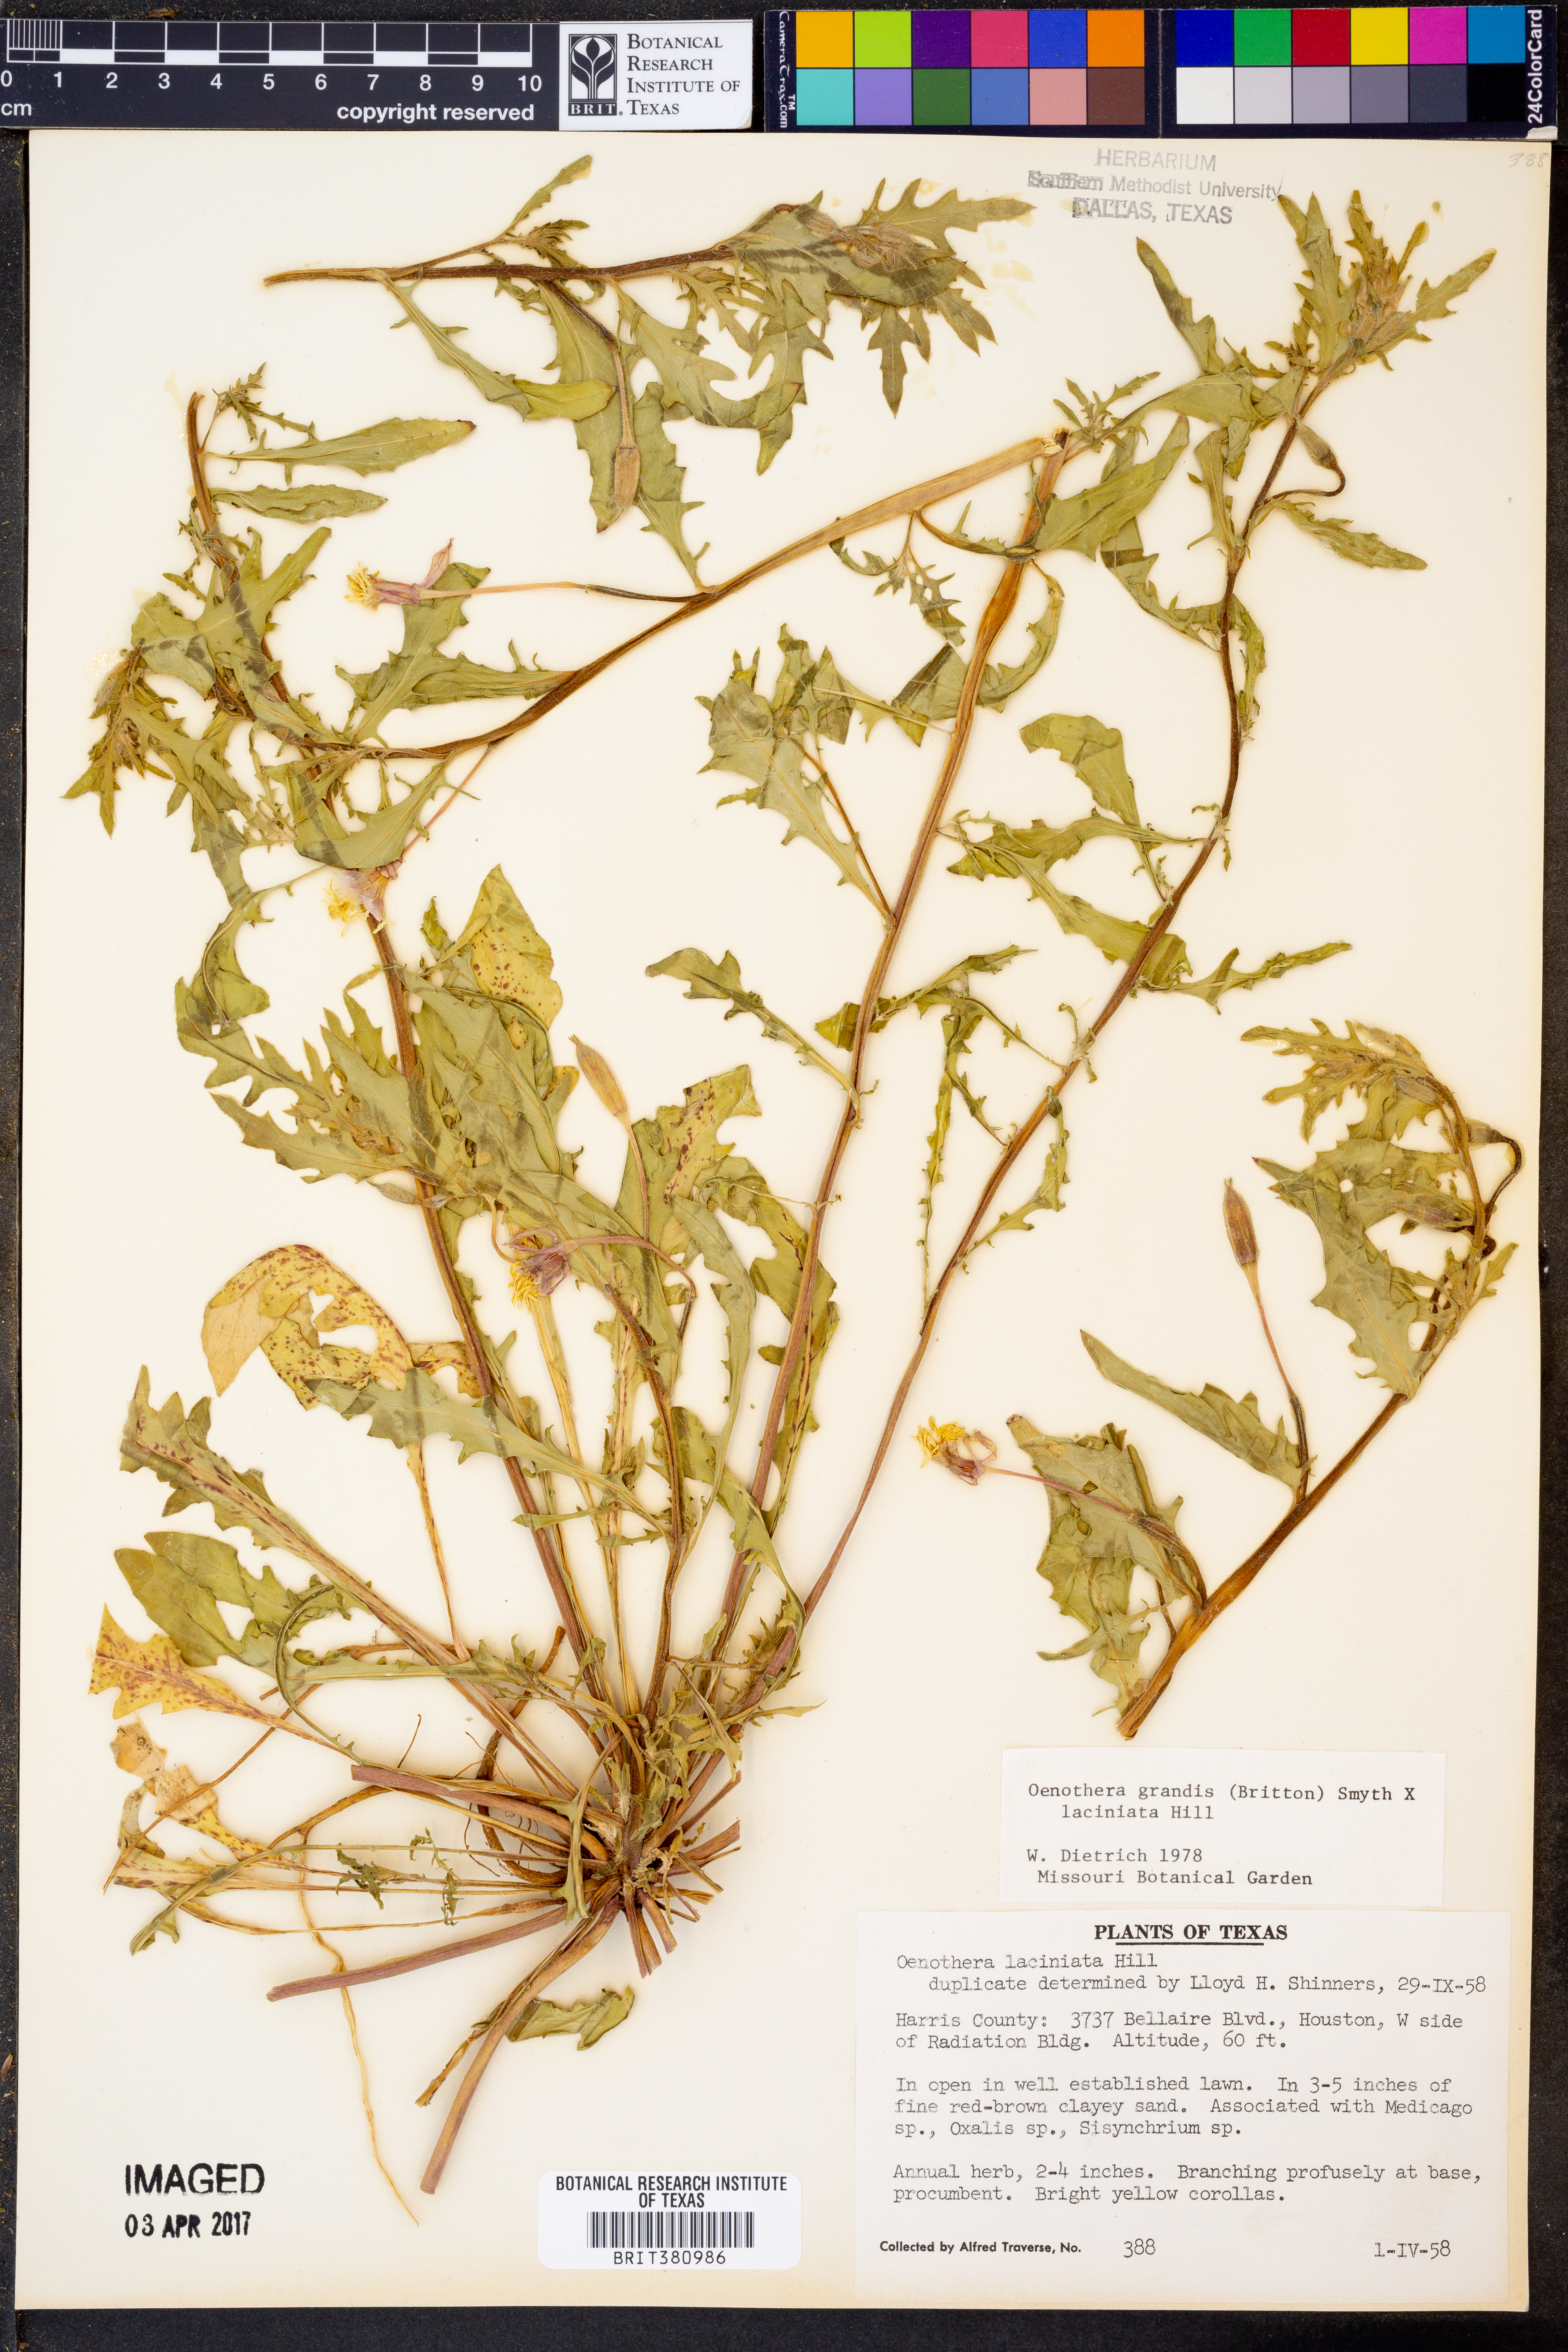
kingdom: Plantae
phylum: Tracheophyta
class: Magnoliopsida
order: Myrtales
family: Onagraceae
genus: Oenothera
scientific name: Oenothera grandis
